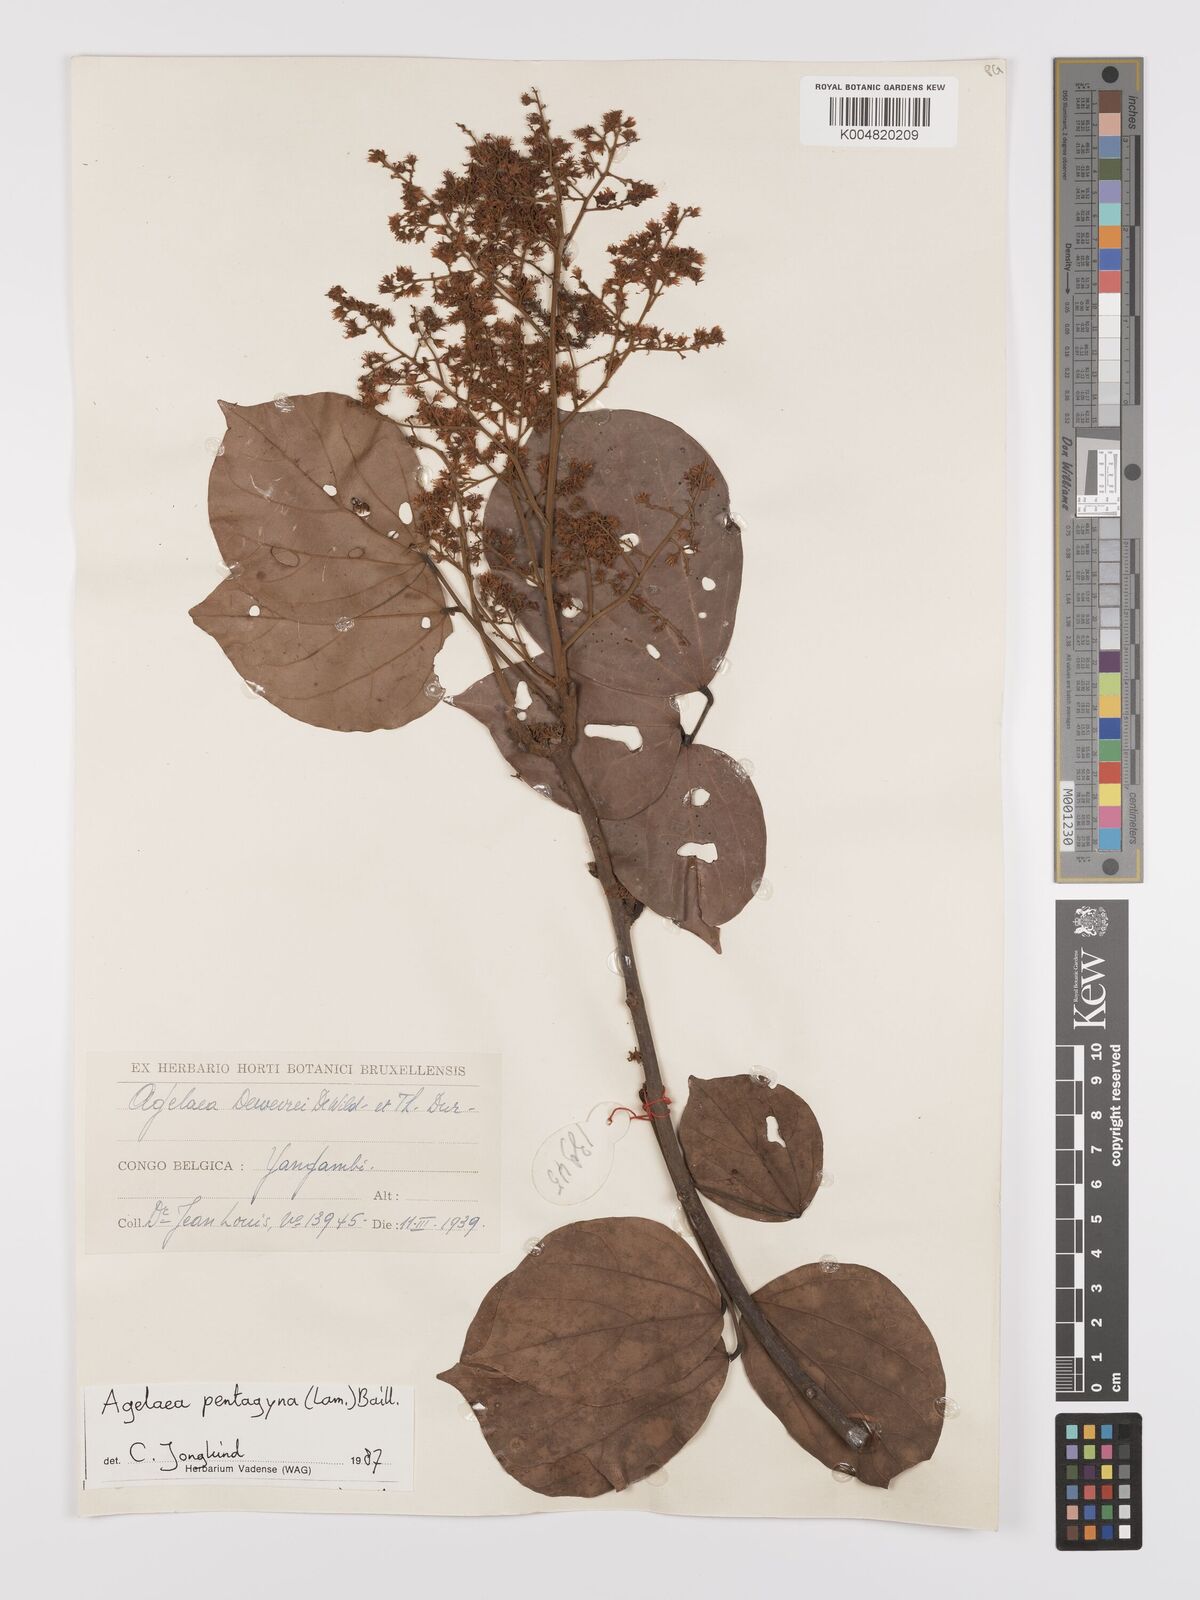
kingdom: Plantae
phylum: Tracheophyta
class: Magnoliopsida
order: Oxalidales
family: Connaraceae
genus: Agelaea
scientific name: Agelaea pentagyna
